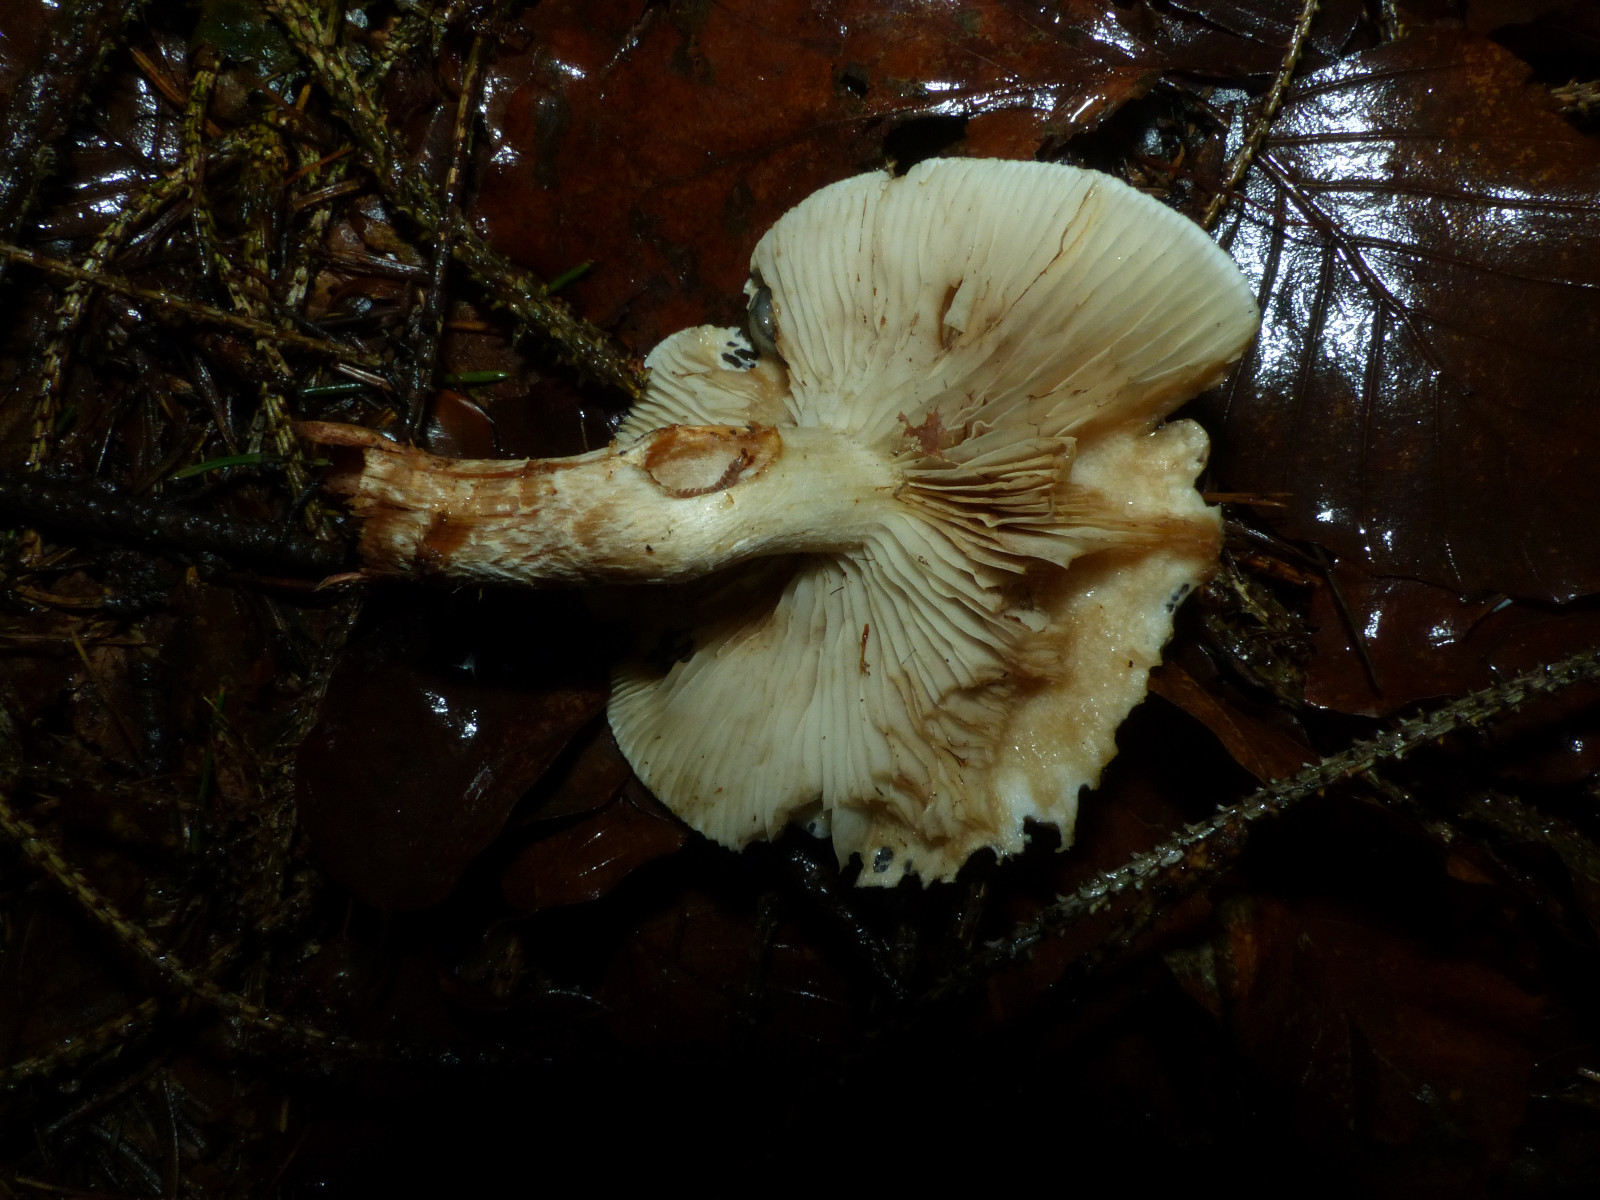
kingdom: Fungi
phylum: Basidiomycota
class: Agaricomycetes
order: Agaricales
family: Strophariaceae
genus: Pholiota
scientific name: Pholiota lenta
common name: løv-skælhat
